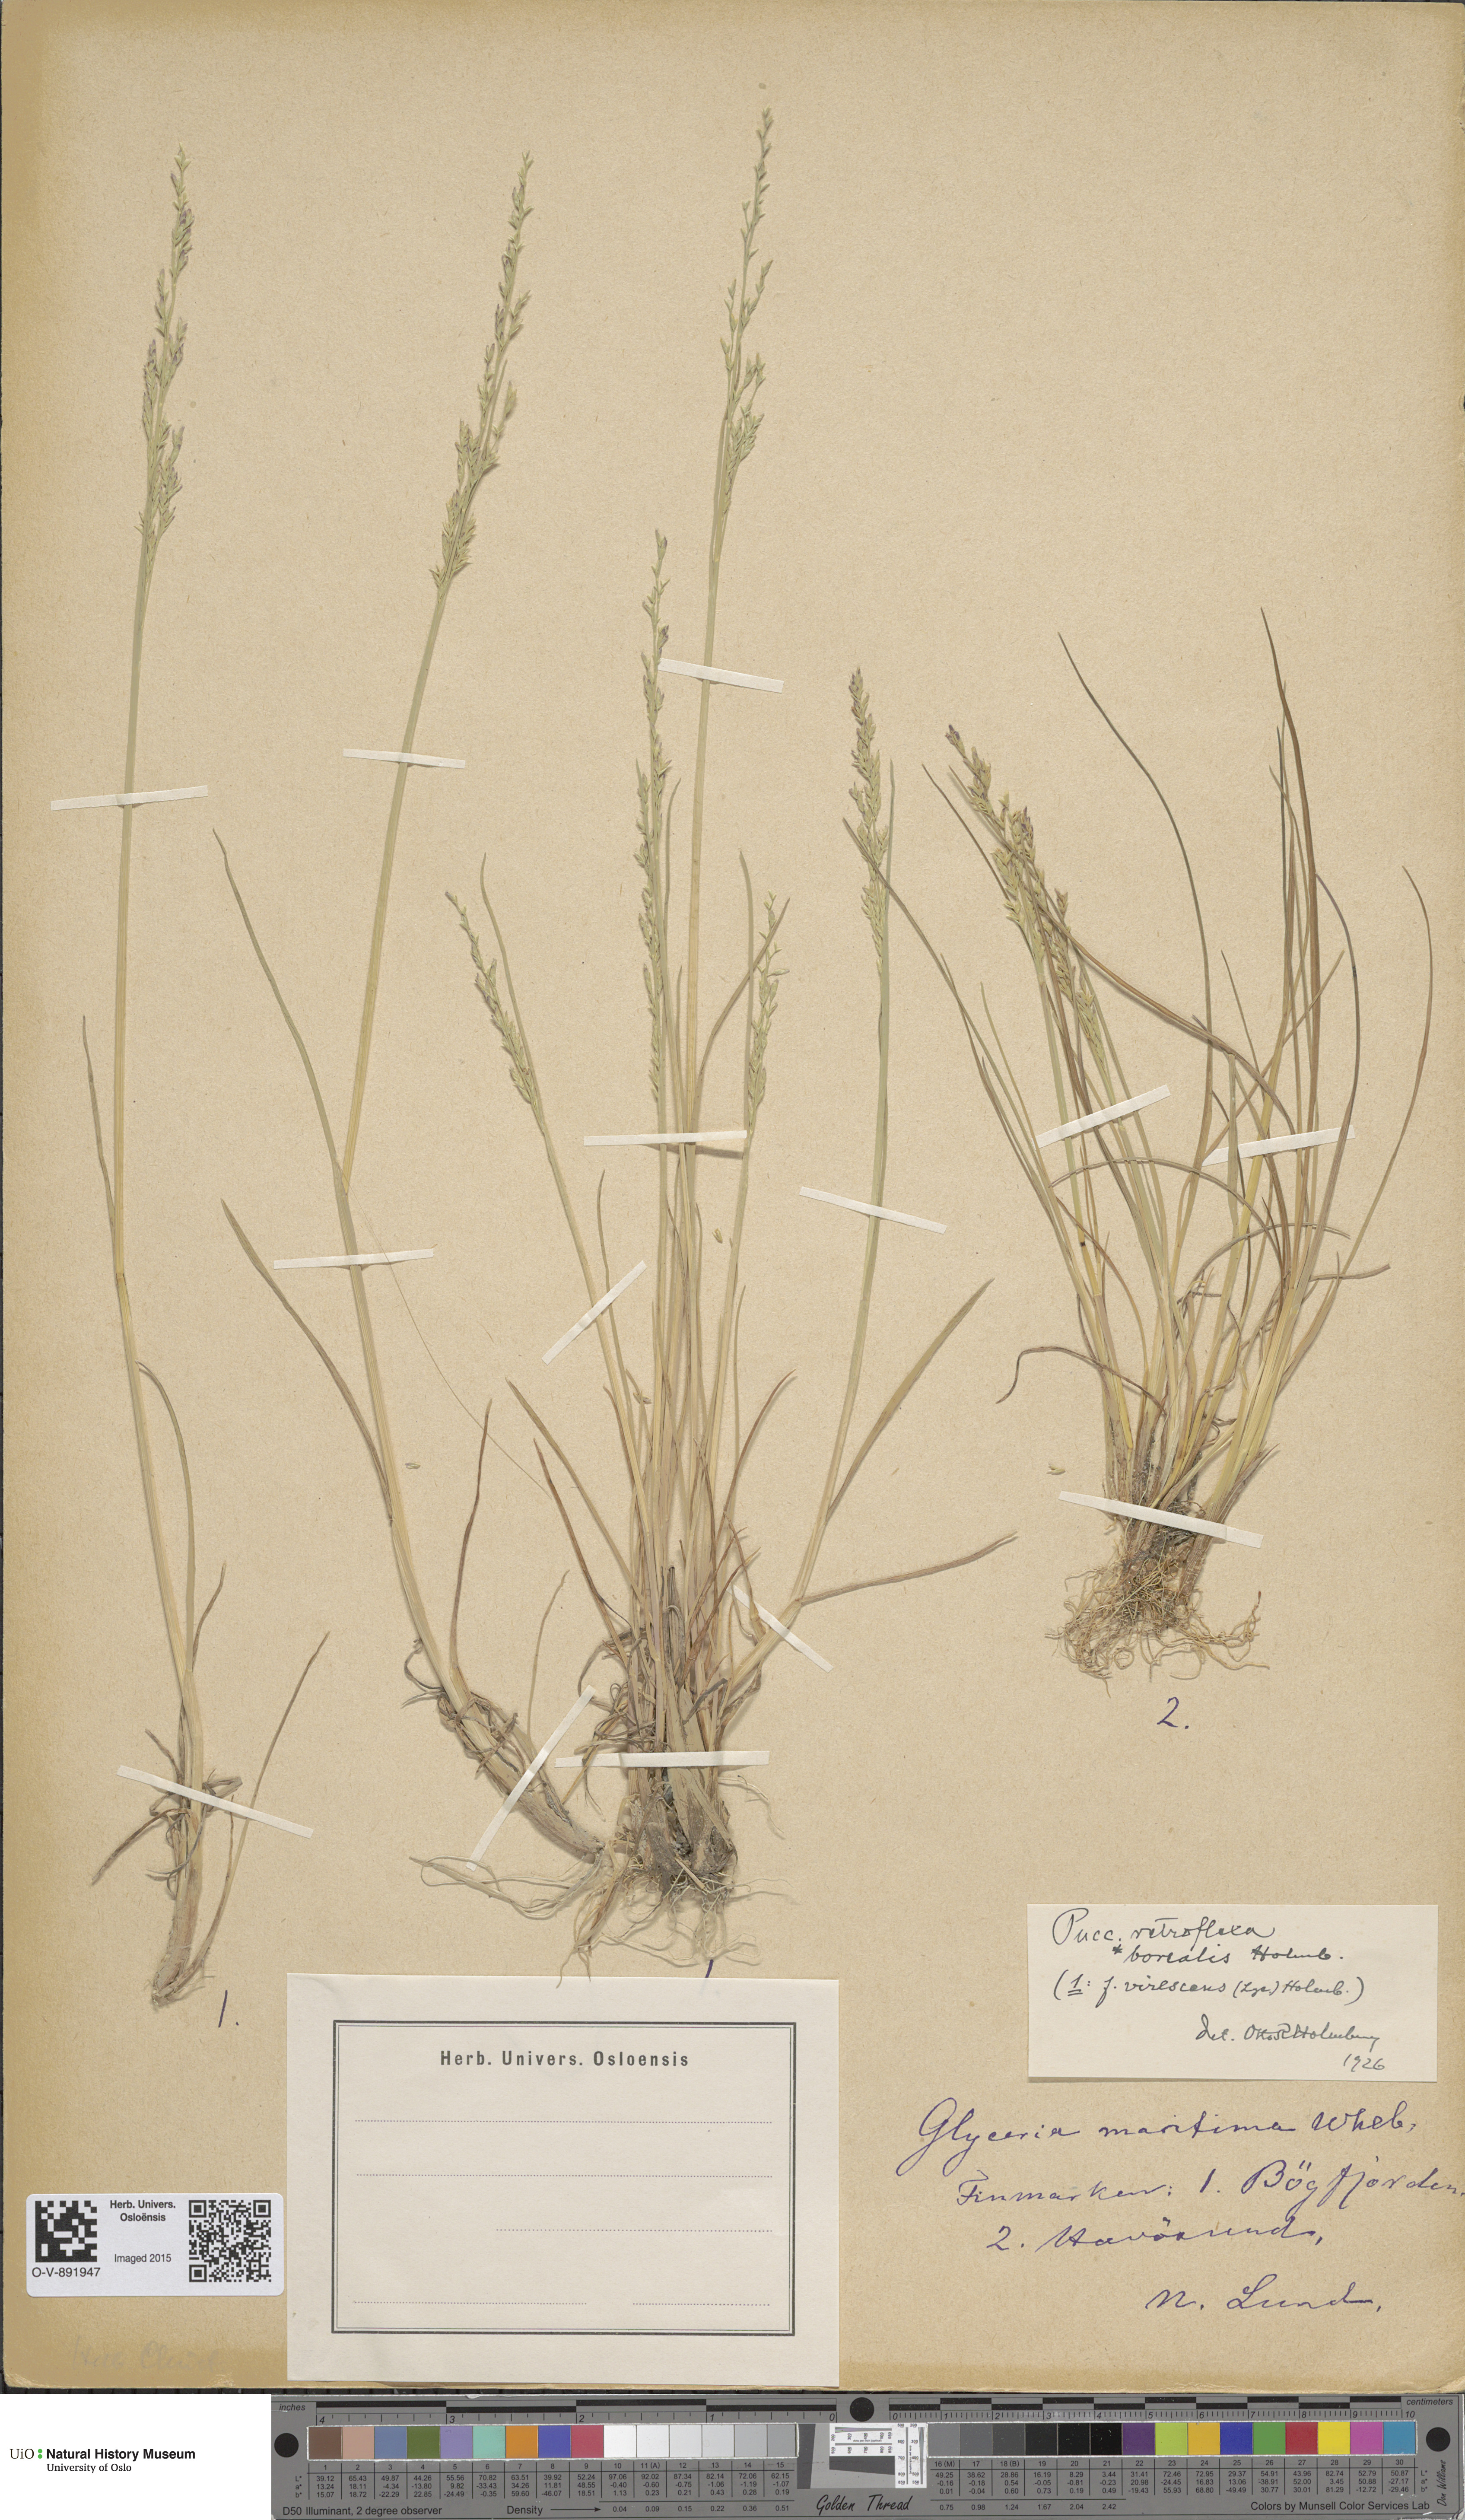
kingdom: Plantae
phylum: Tracheophyta
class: Liliopsida
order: Poales
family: Poaceae
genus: Puccinellia
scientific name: Puccinellia distans
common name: Weeping alkaligrass
